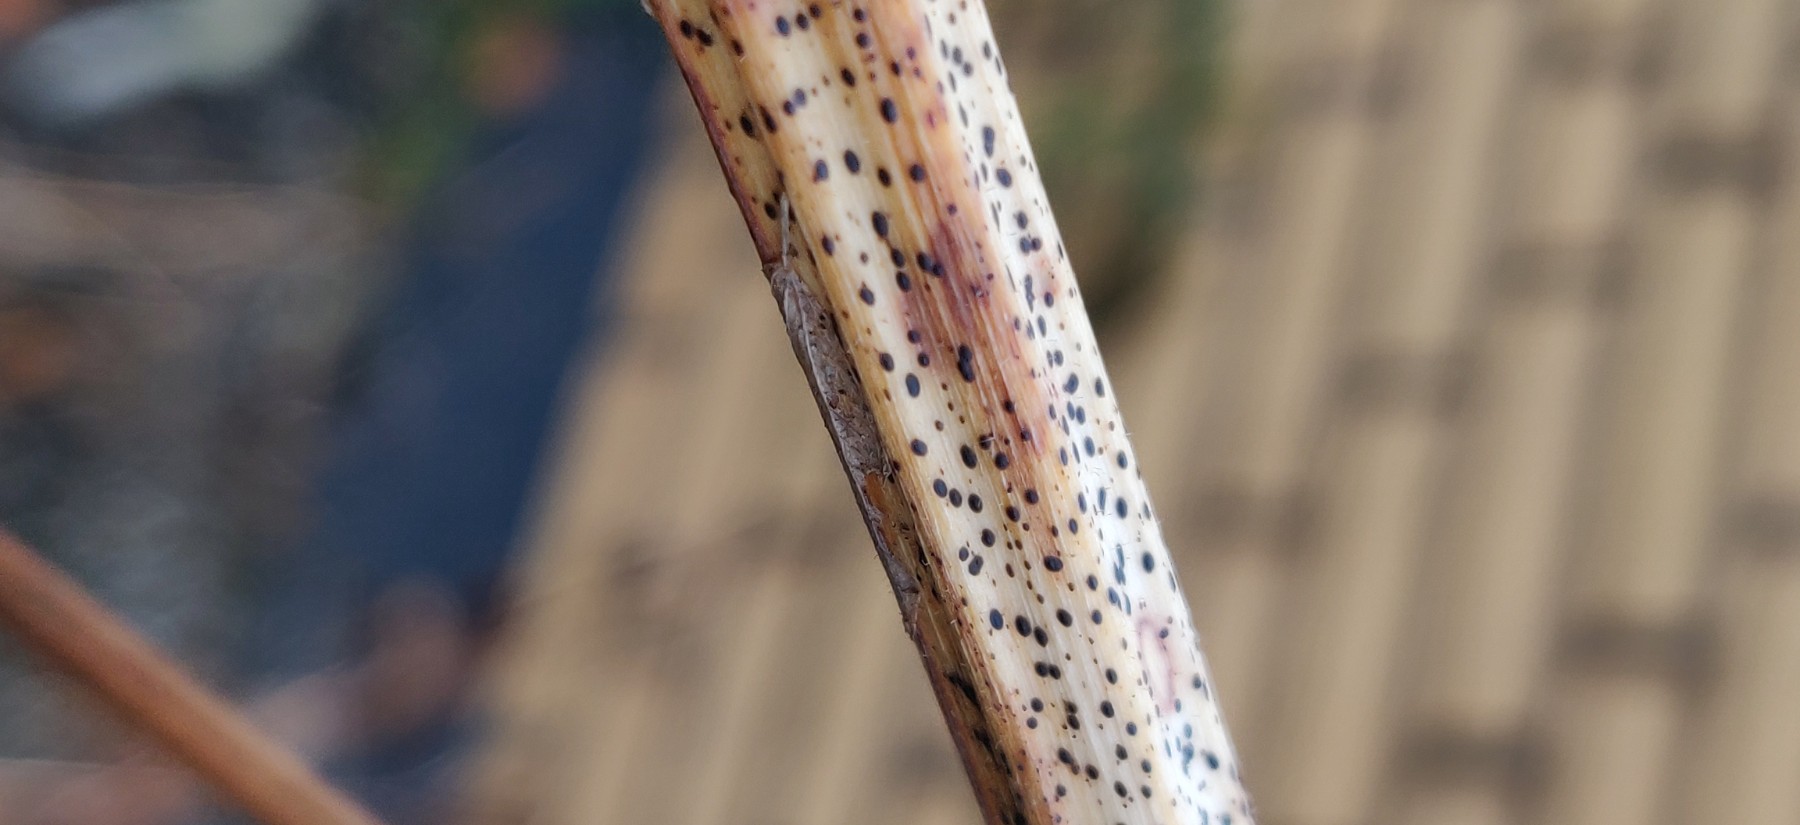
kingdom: Fungi
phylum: Ascomycota
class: Leotiomycetes
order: Rhytismatales
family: Rhytismataceae
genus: Lophodermium
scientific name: Lophodermium paeoniae
